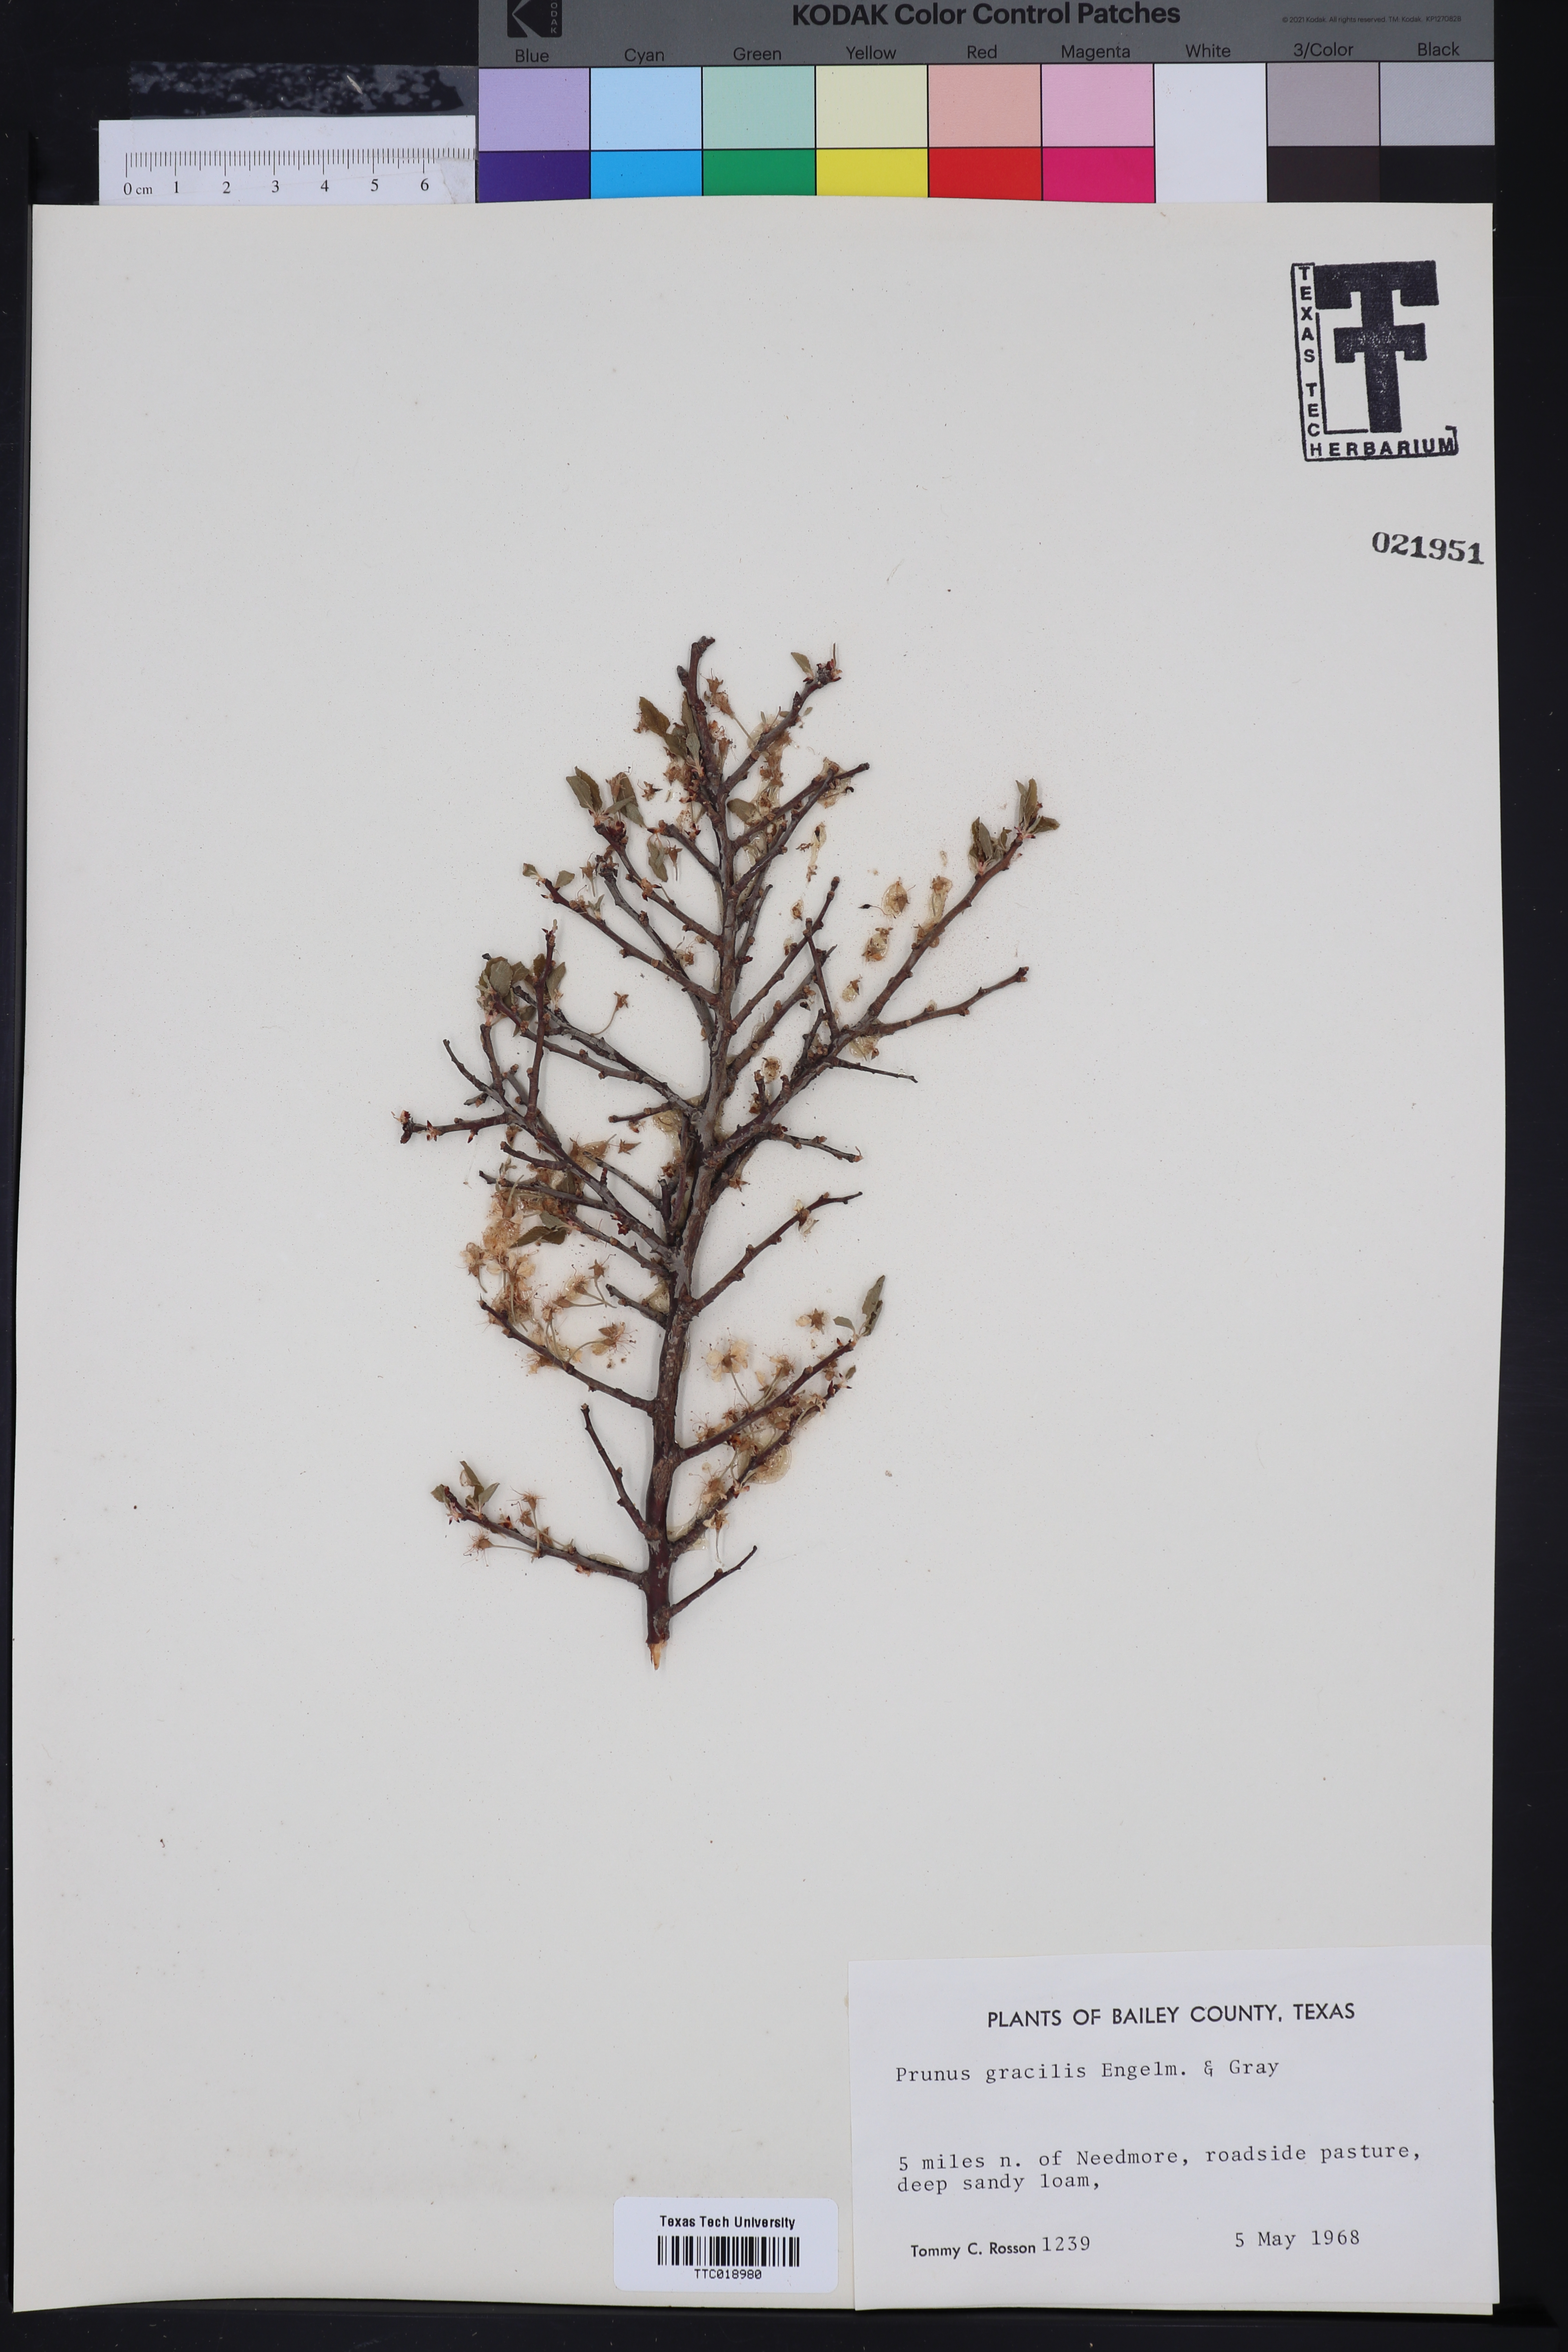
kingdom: Plantae
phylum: Tracheophyta
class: Magnoliopsida
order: Rosales
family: Rosaceae
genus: Prunus
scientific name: Prunus rivularis
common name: Creek plum
